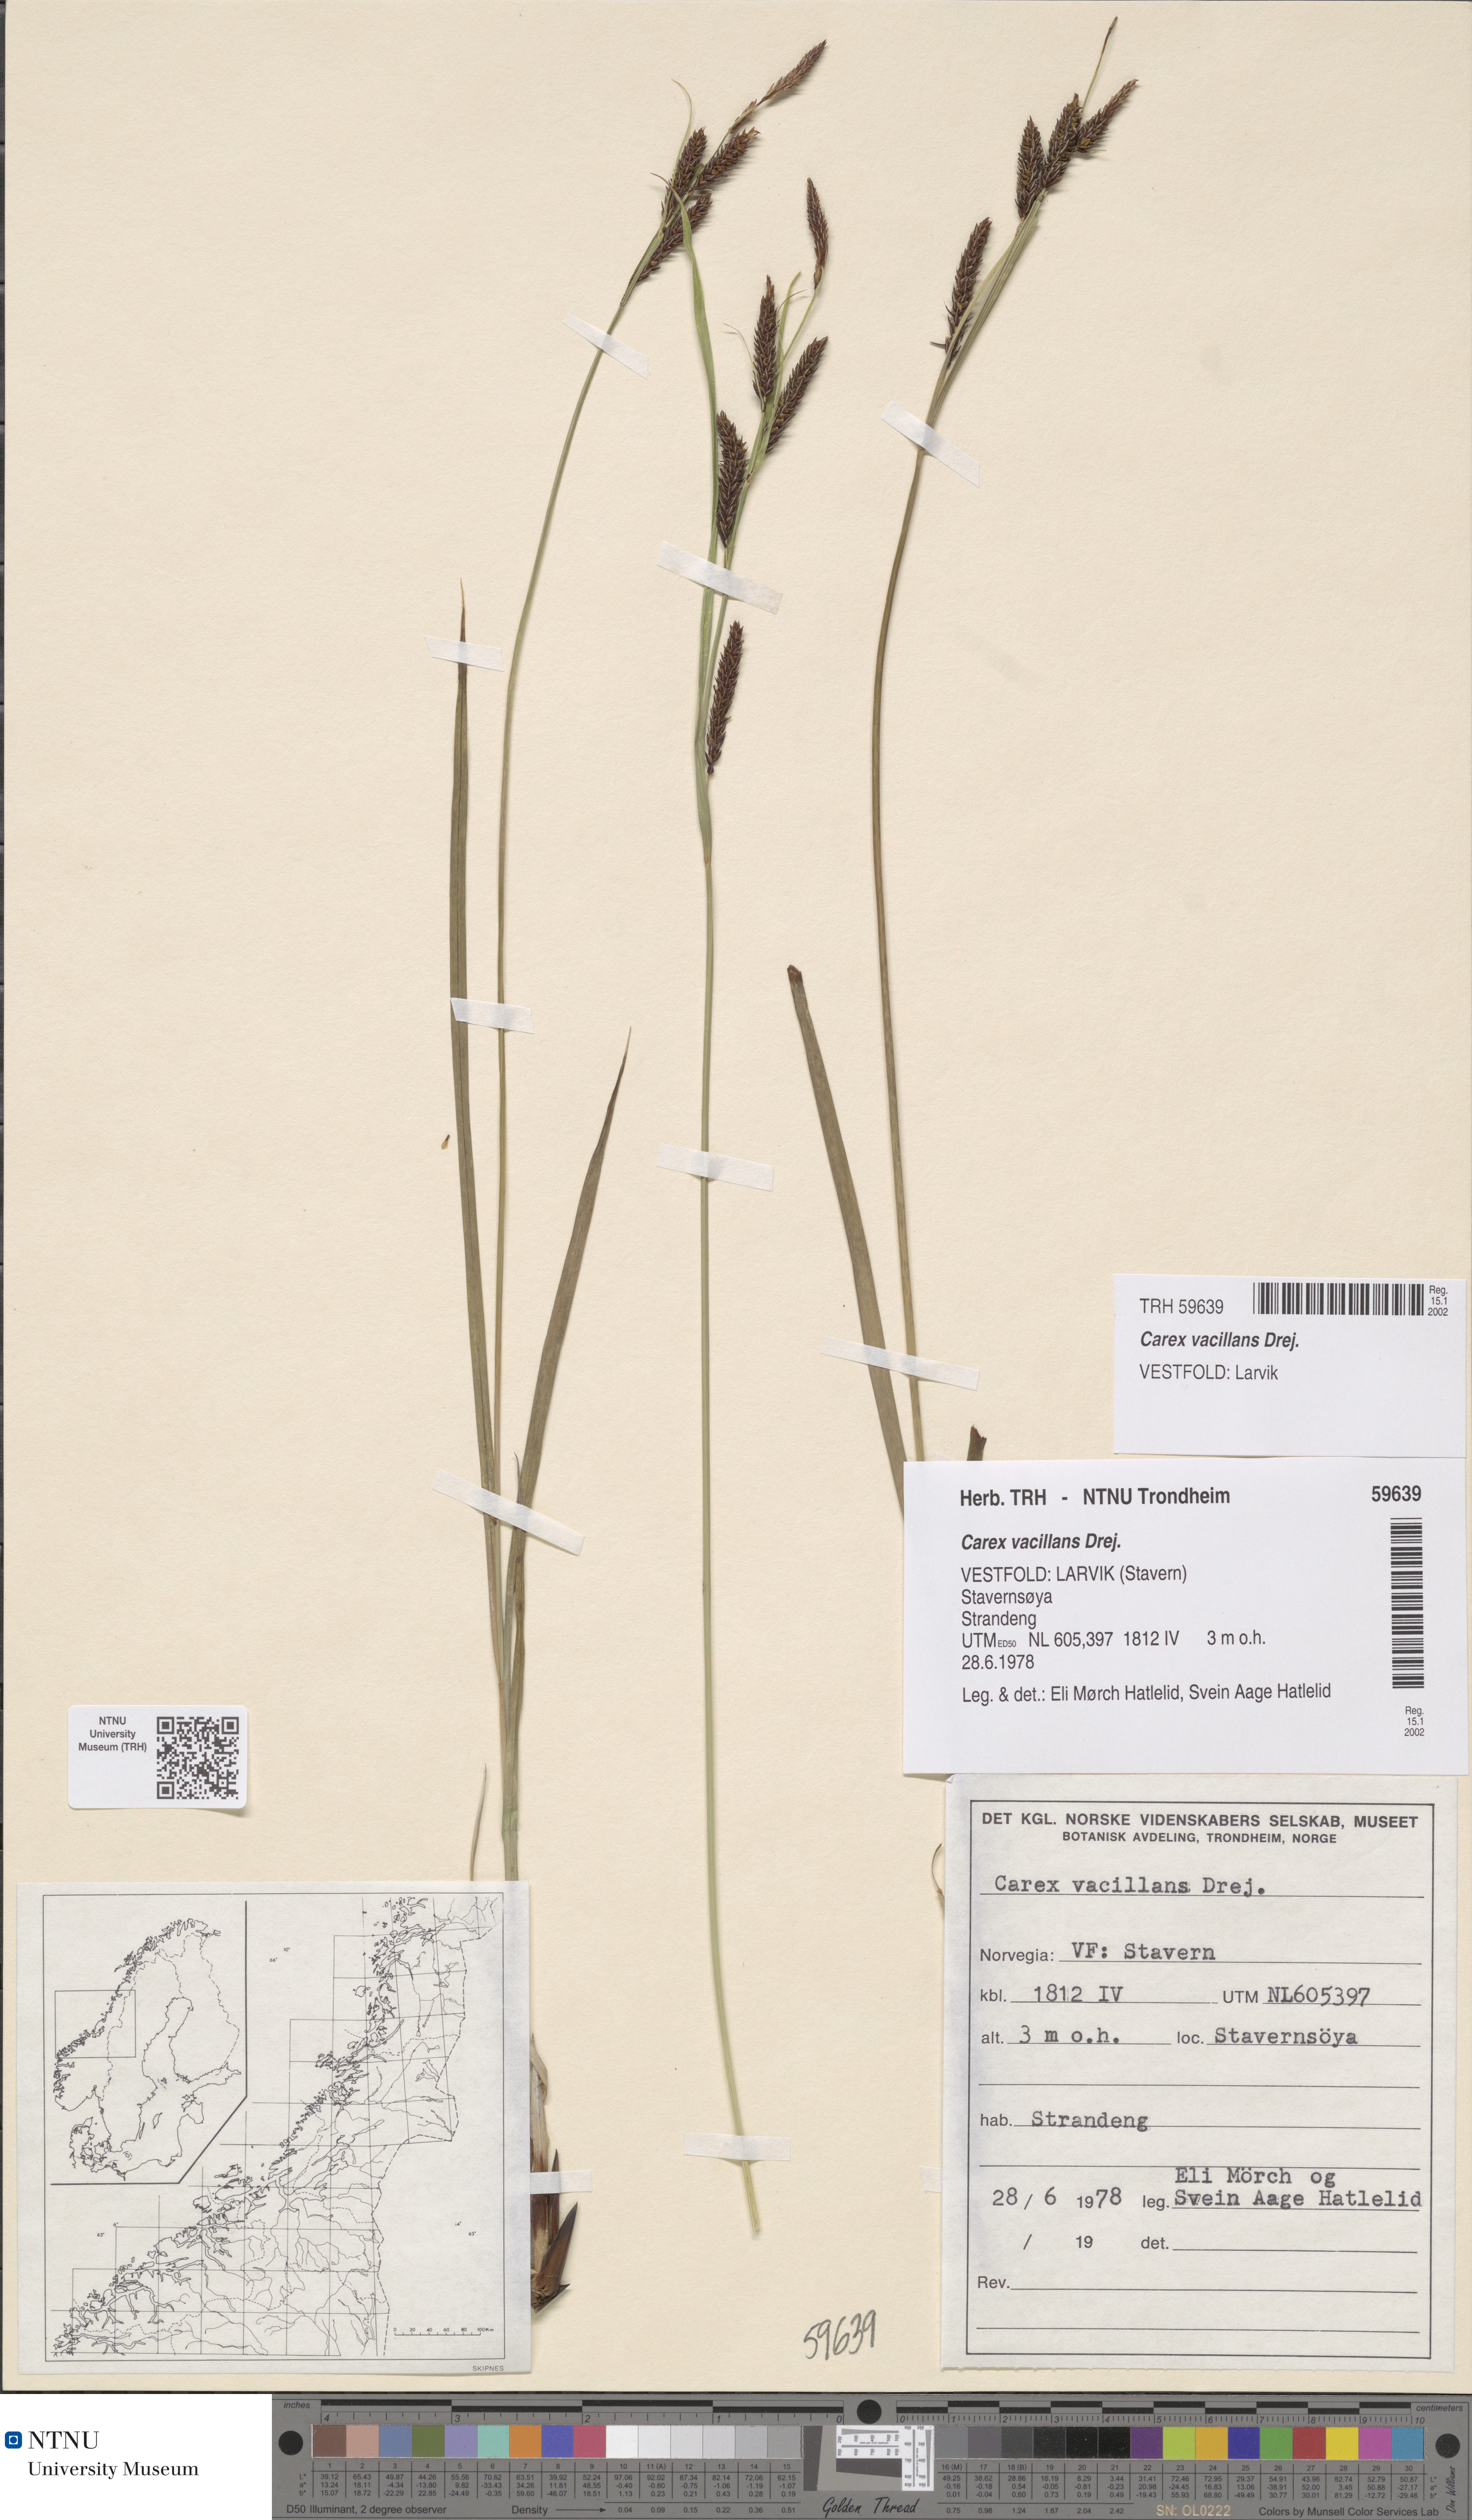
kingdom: Plantae
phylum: Tracheophyta
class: Liliopsida
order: Poales
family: Cyperaceae
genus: Carex
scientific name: Carex vacillans
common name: Sedge
